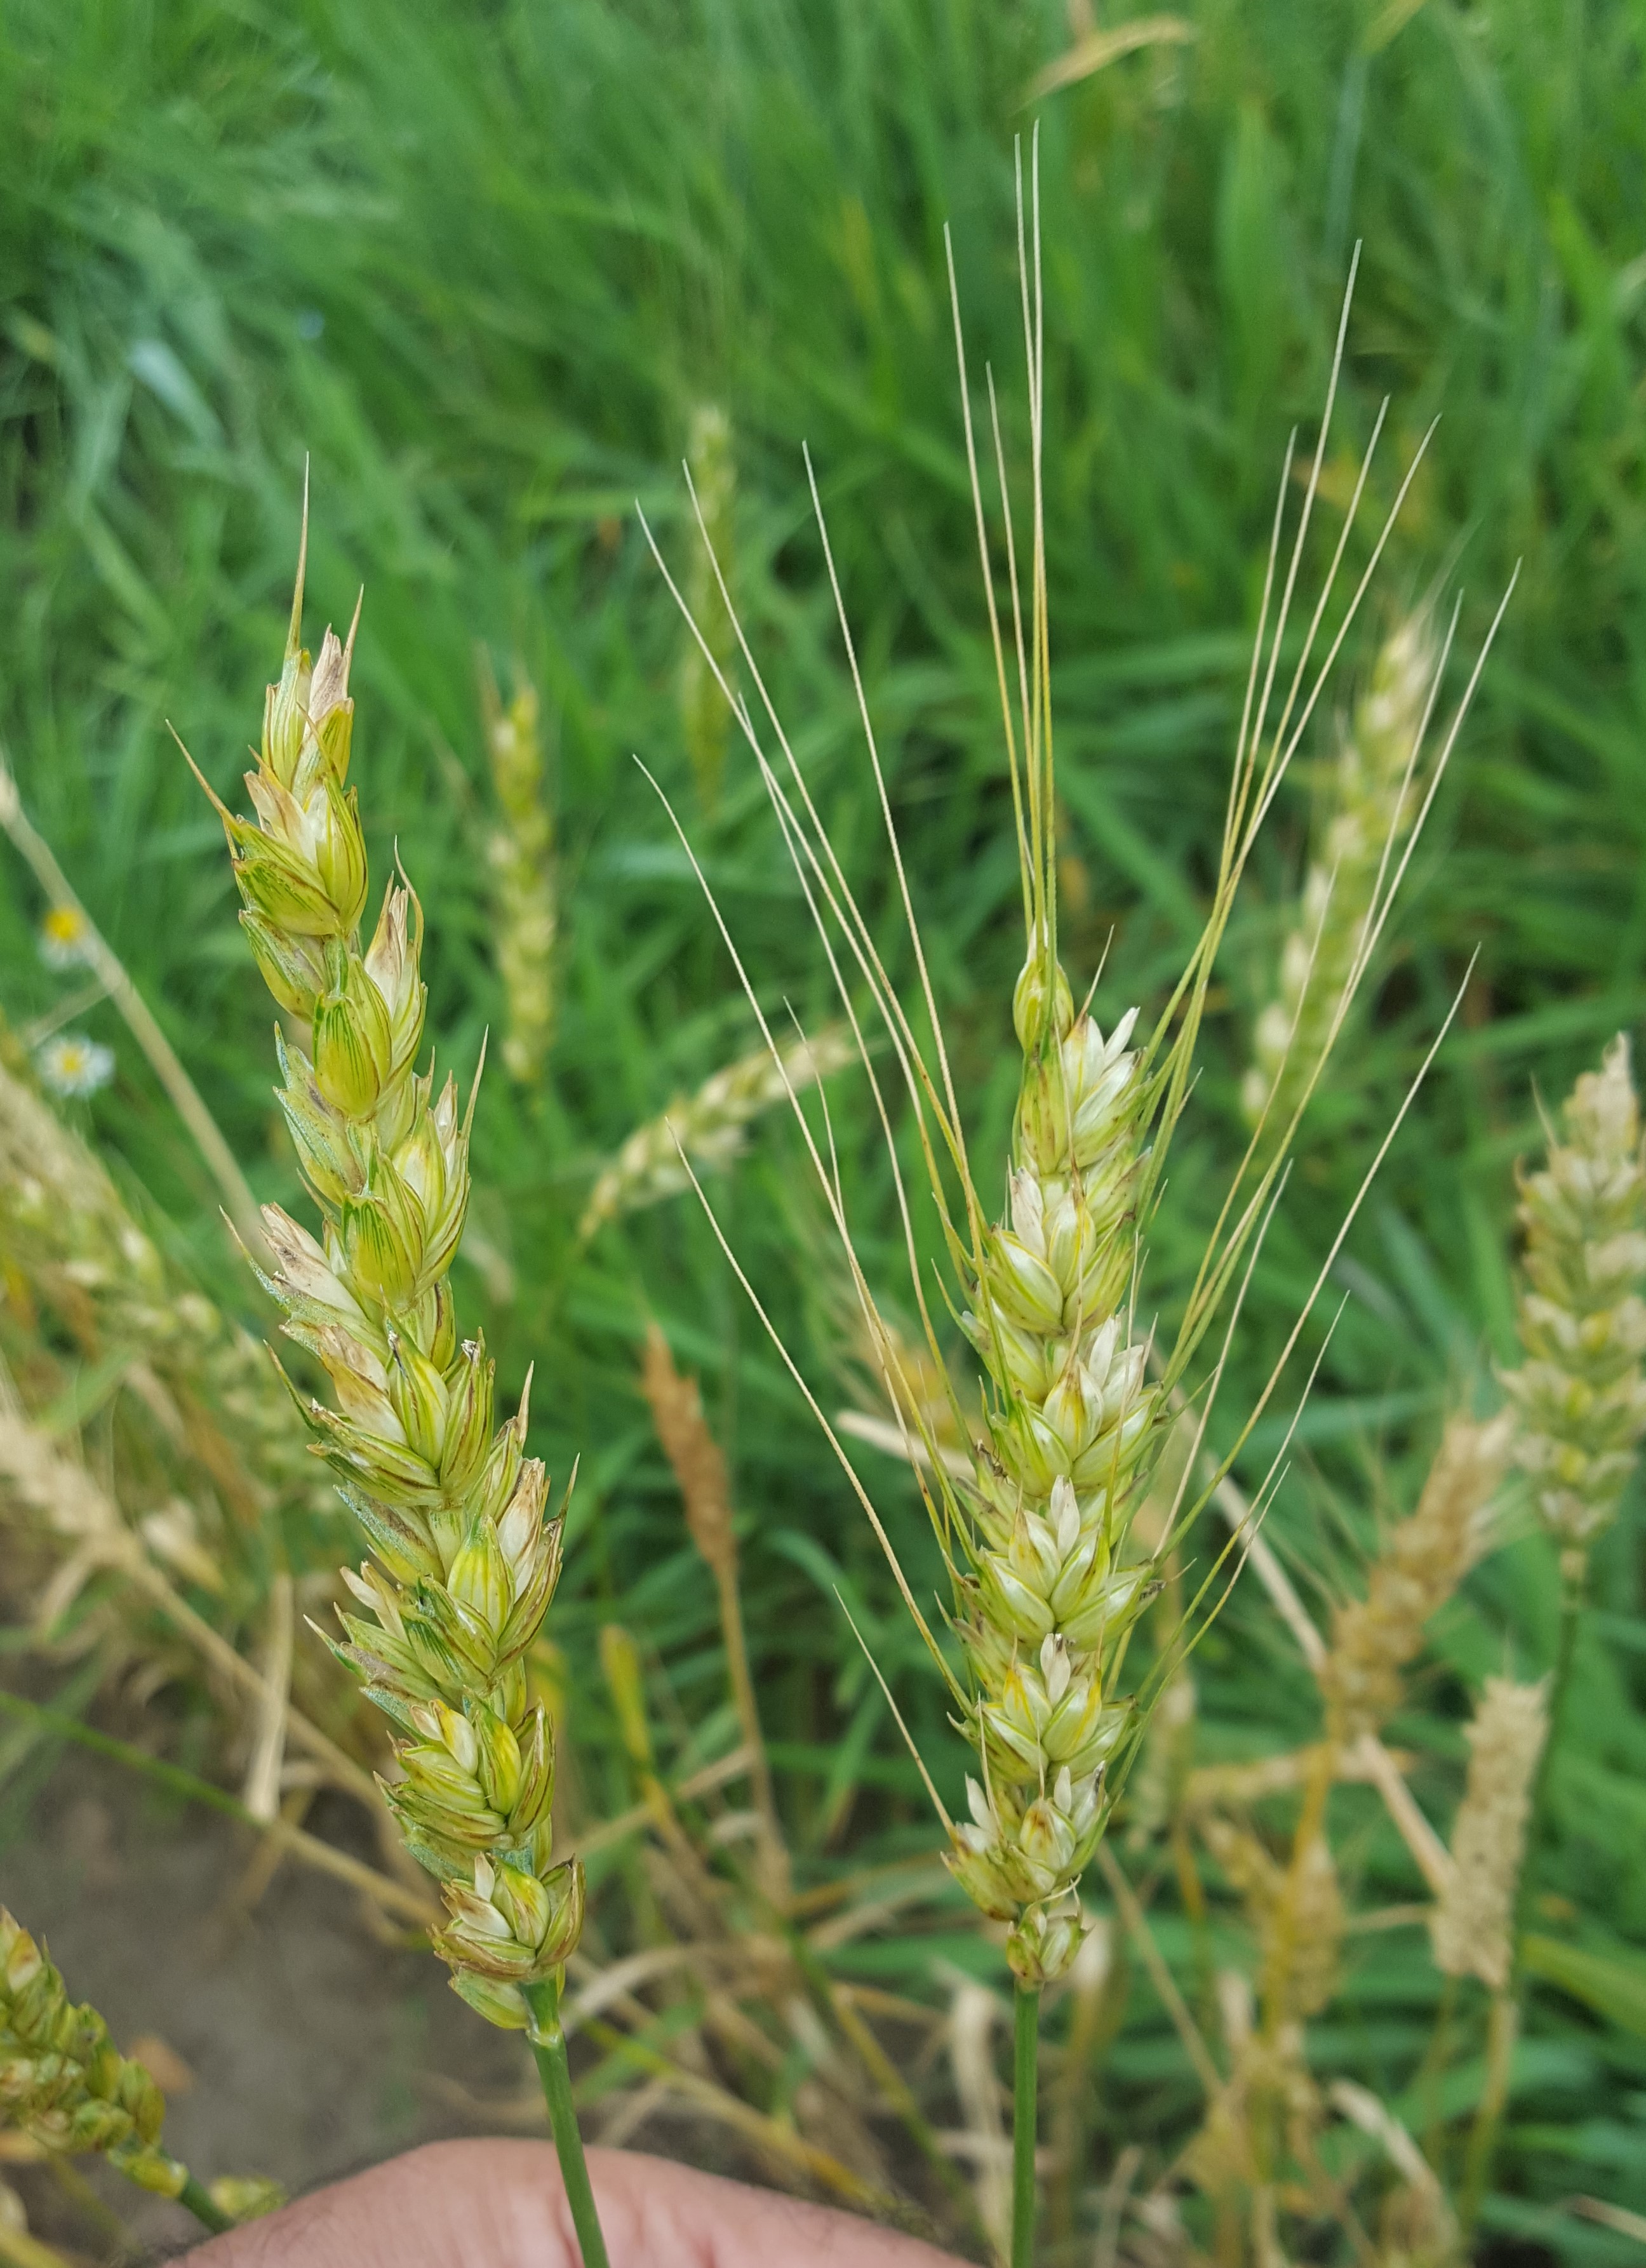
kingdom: Plantae
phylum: Tracheophyta
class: Liliopsida
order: Poales
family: Poaceae
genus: Triticum
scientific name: Triticum aestivum
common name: Common wheat
